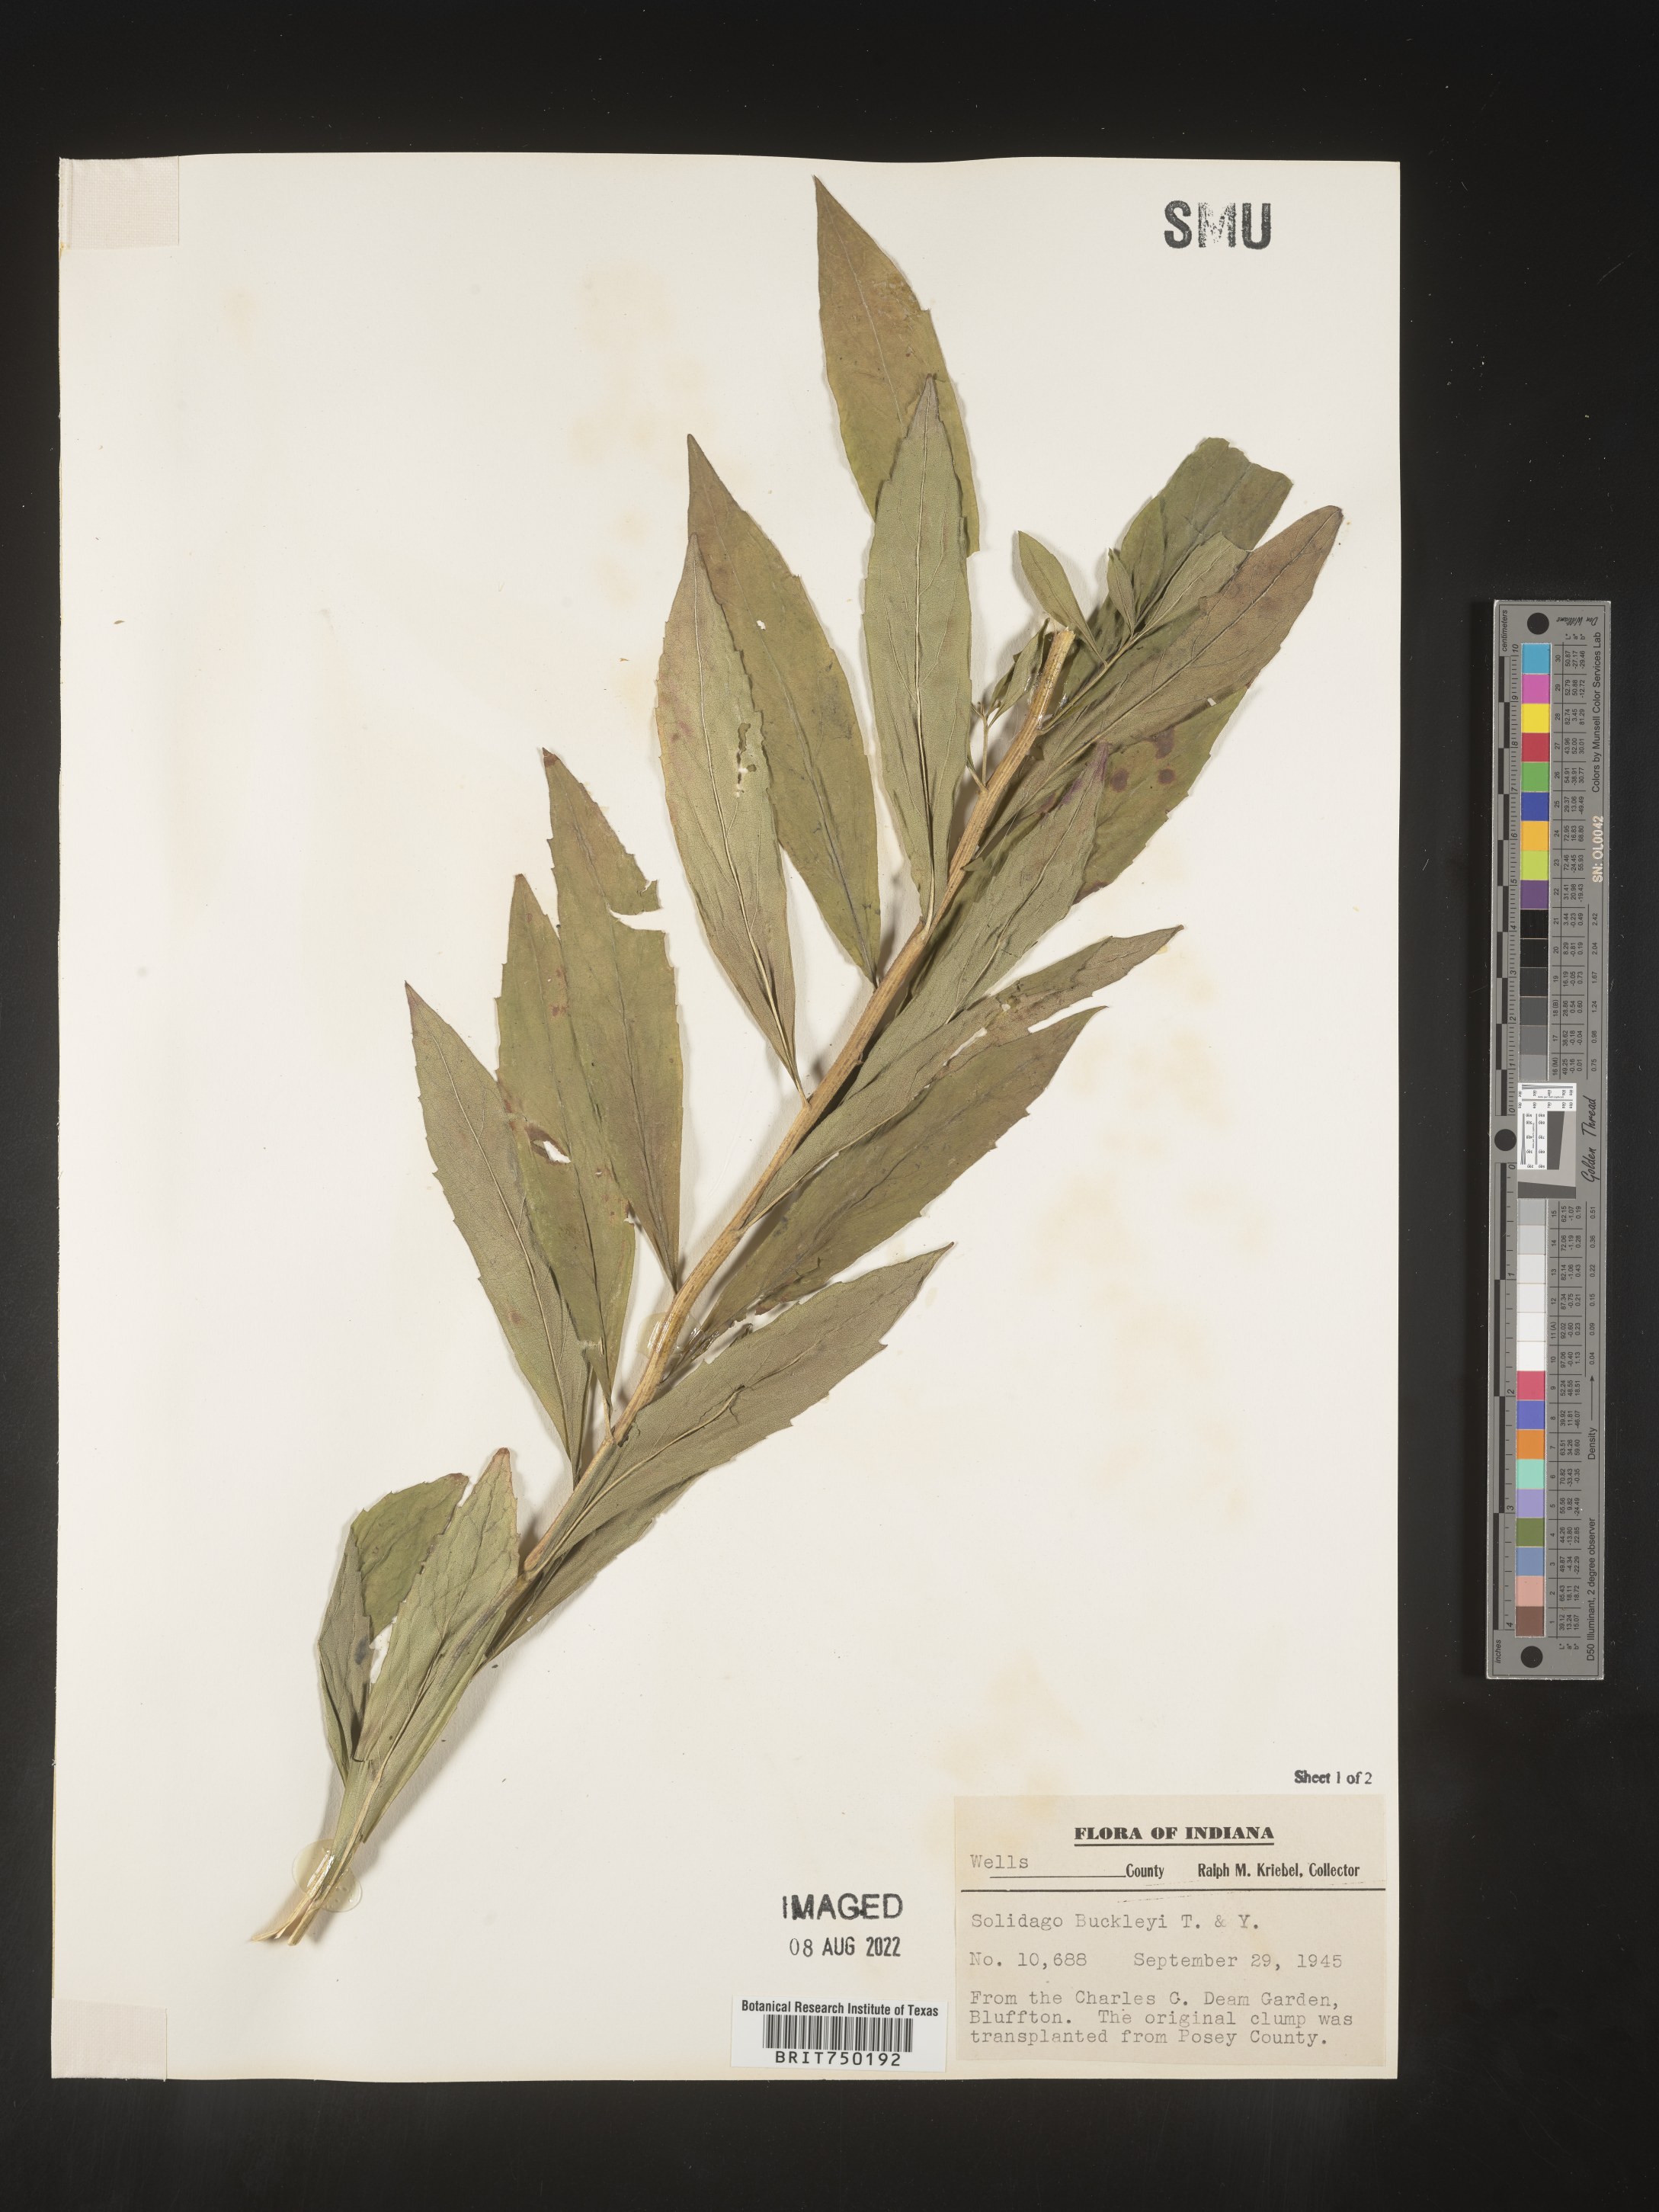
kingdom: Plantae
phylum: Tracheophyta
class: Magnoliopsida
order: Asterales
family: Asteraceae
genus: Solidago
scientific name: Solidago
